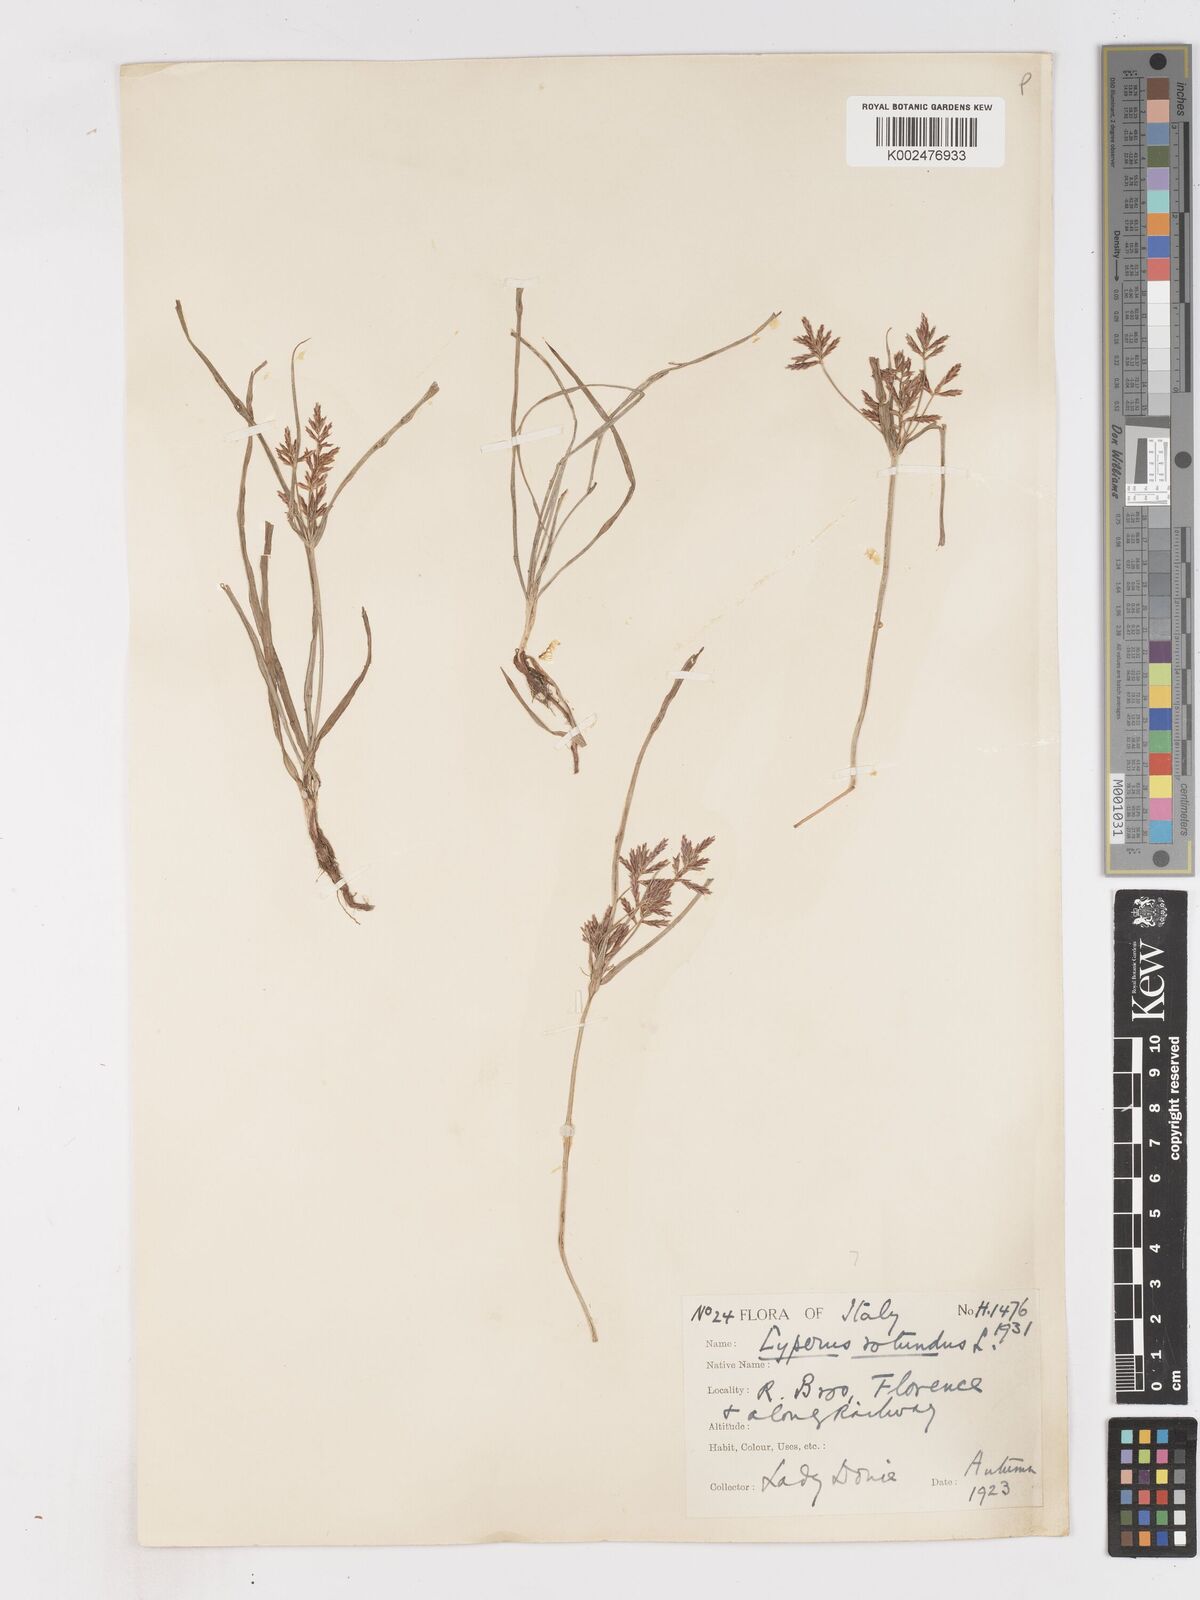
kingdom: Plantae
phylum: Tracheophyta
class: Liliopsida
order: Poales
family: Cyperaceae
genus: Cyperus
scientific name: Cyperus rotundus
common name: Nutgrass
